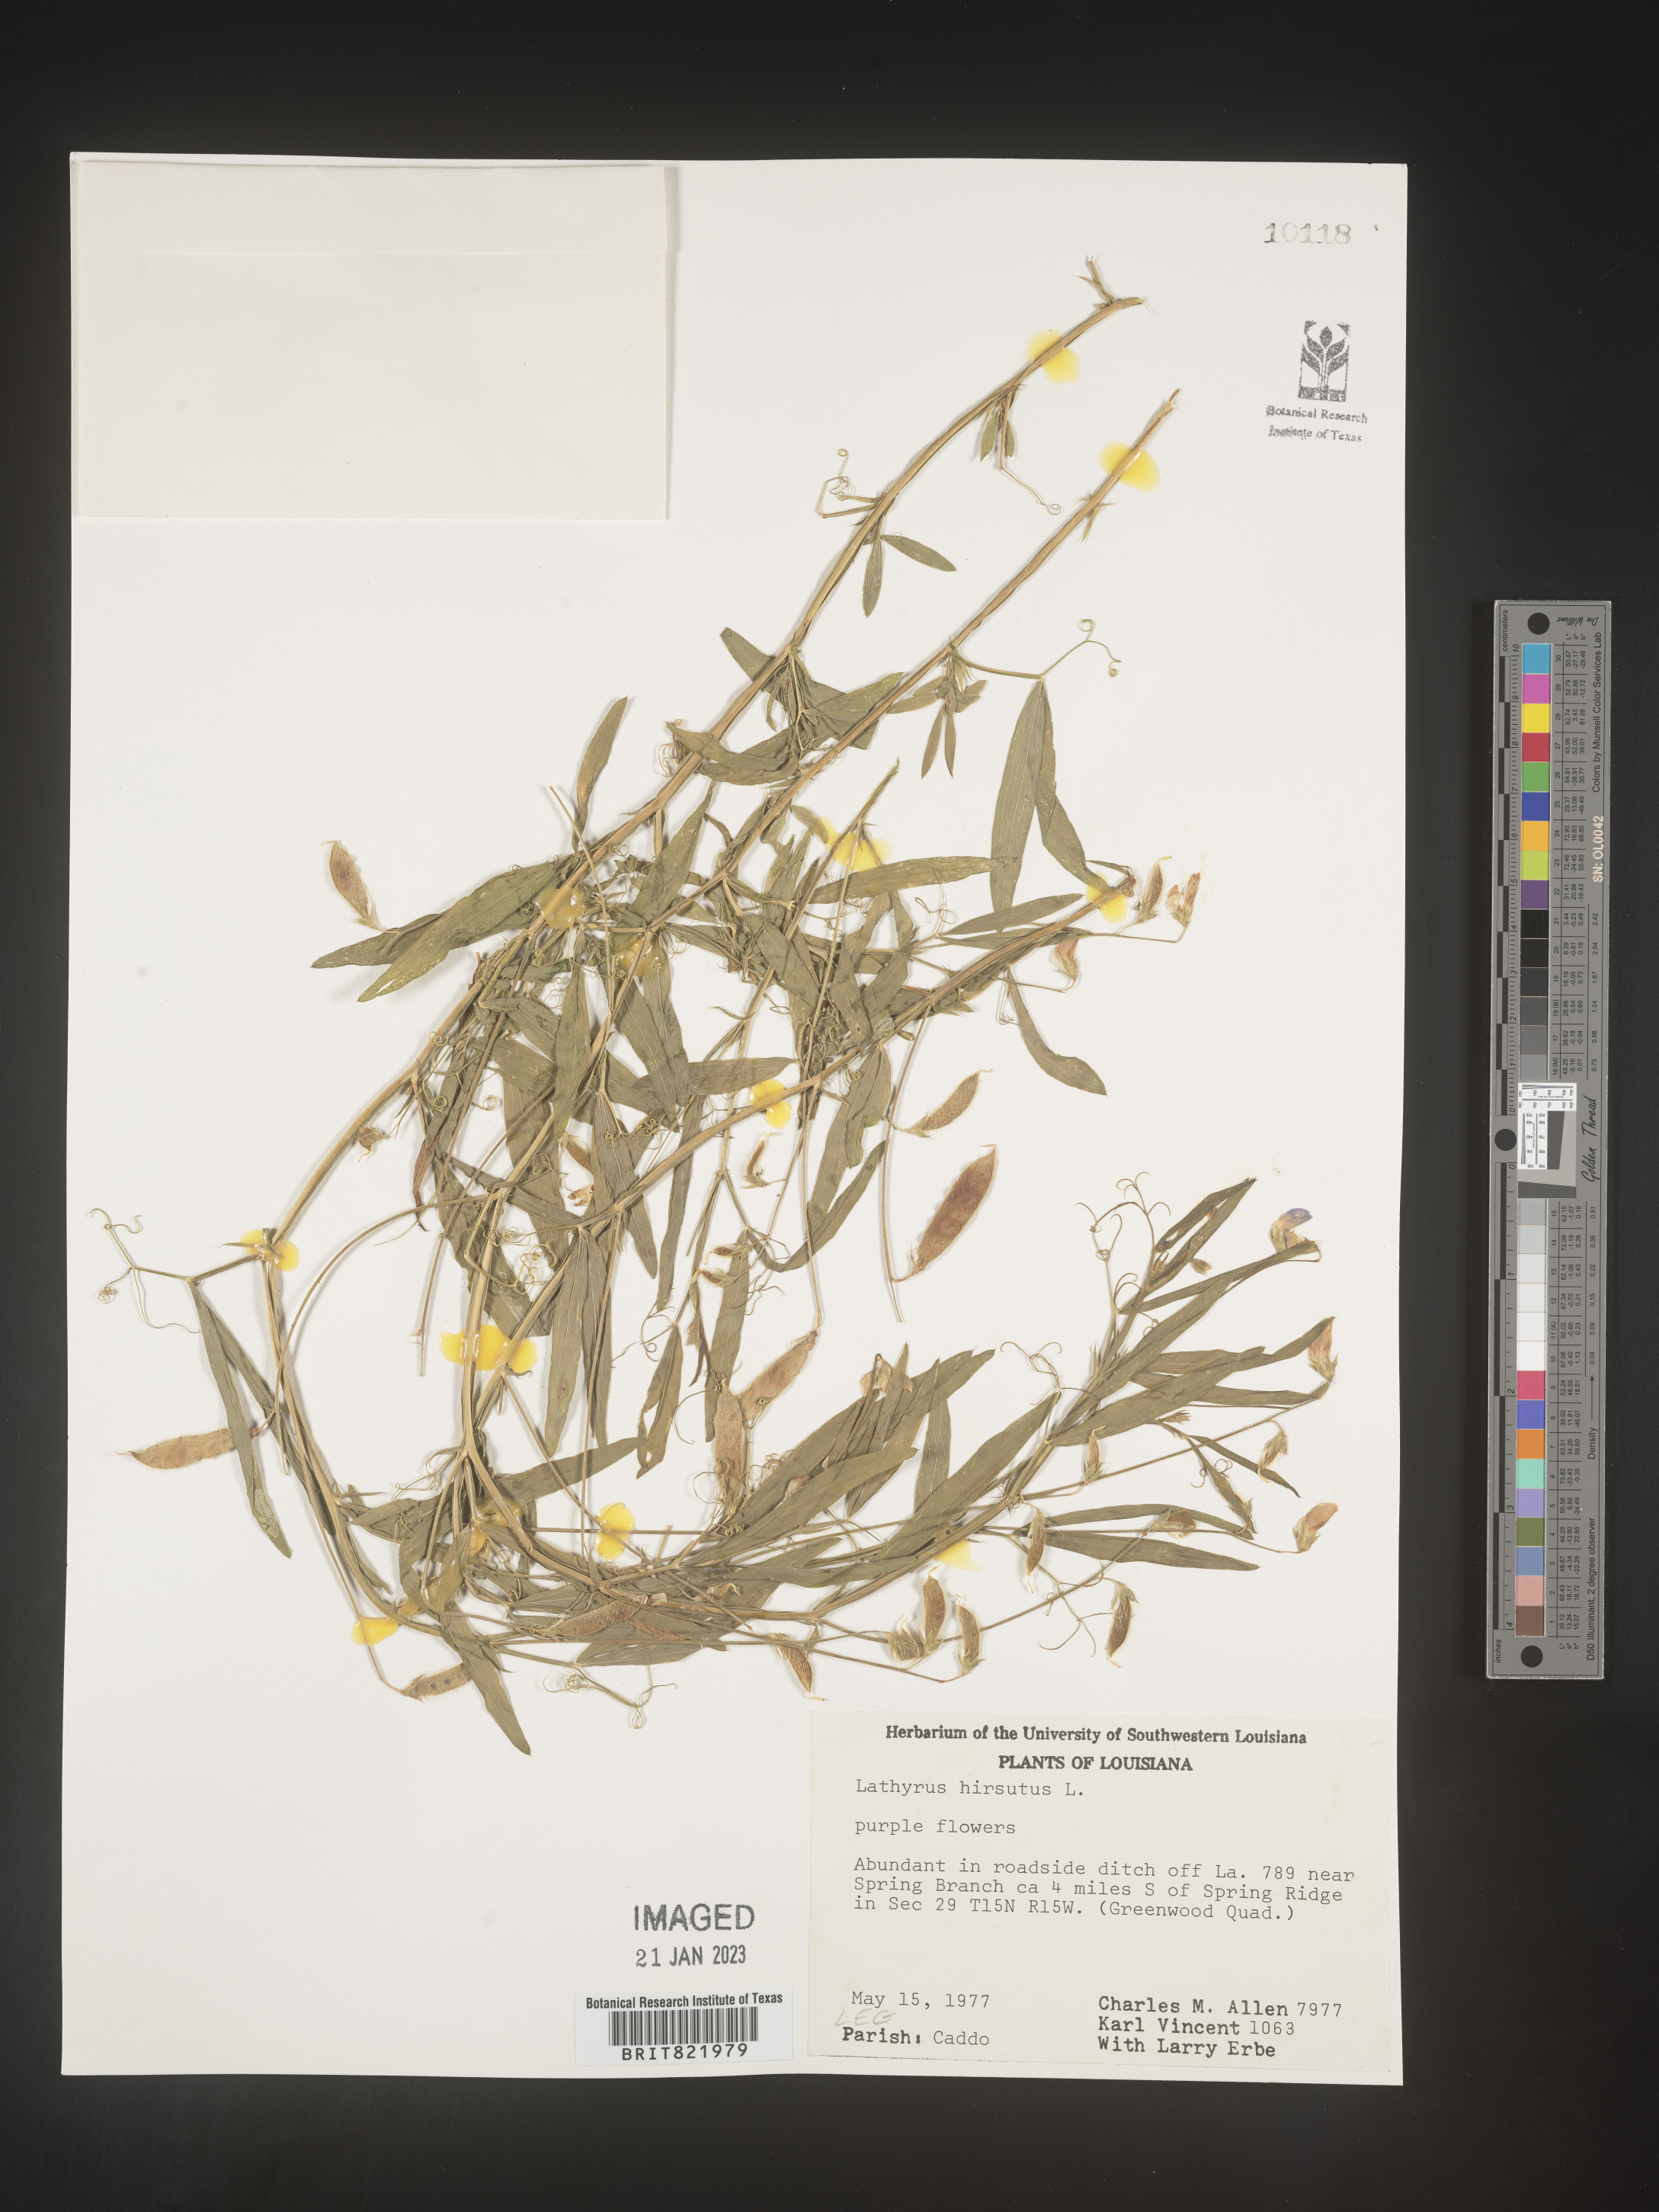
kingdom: Plantae
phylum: Tracheophyta
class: Magnoliopsida
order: Fabales
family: Fabaceae
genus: Lathyrus
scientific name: Lathyrus hirsutus
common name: Hairy vetchling
